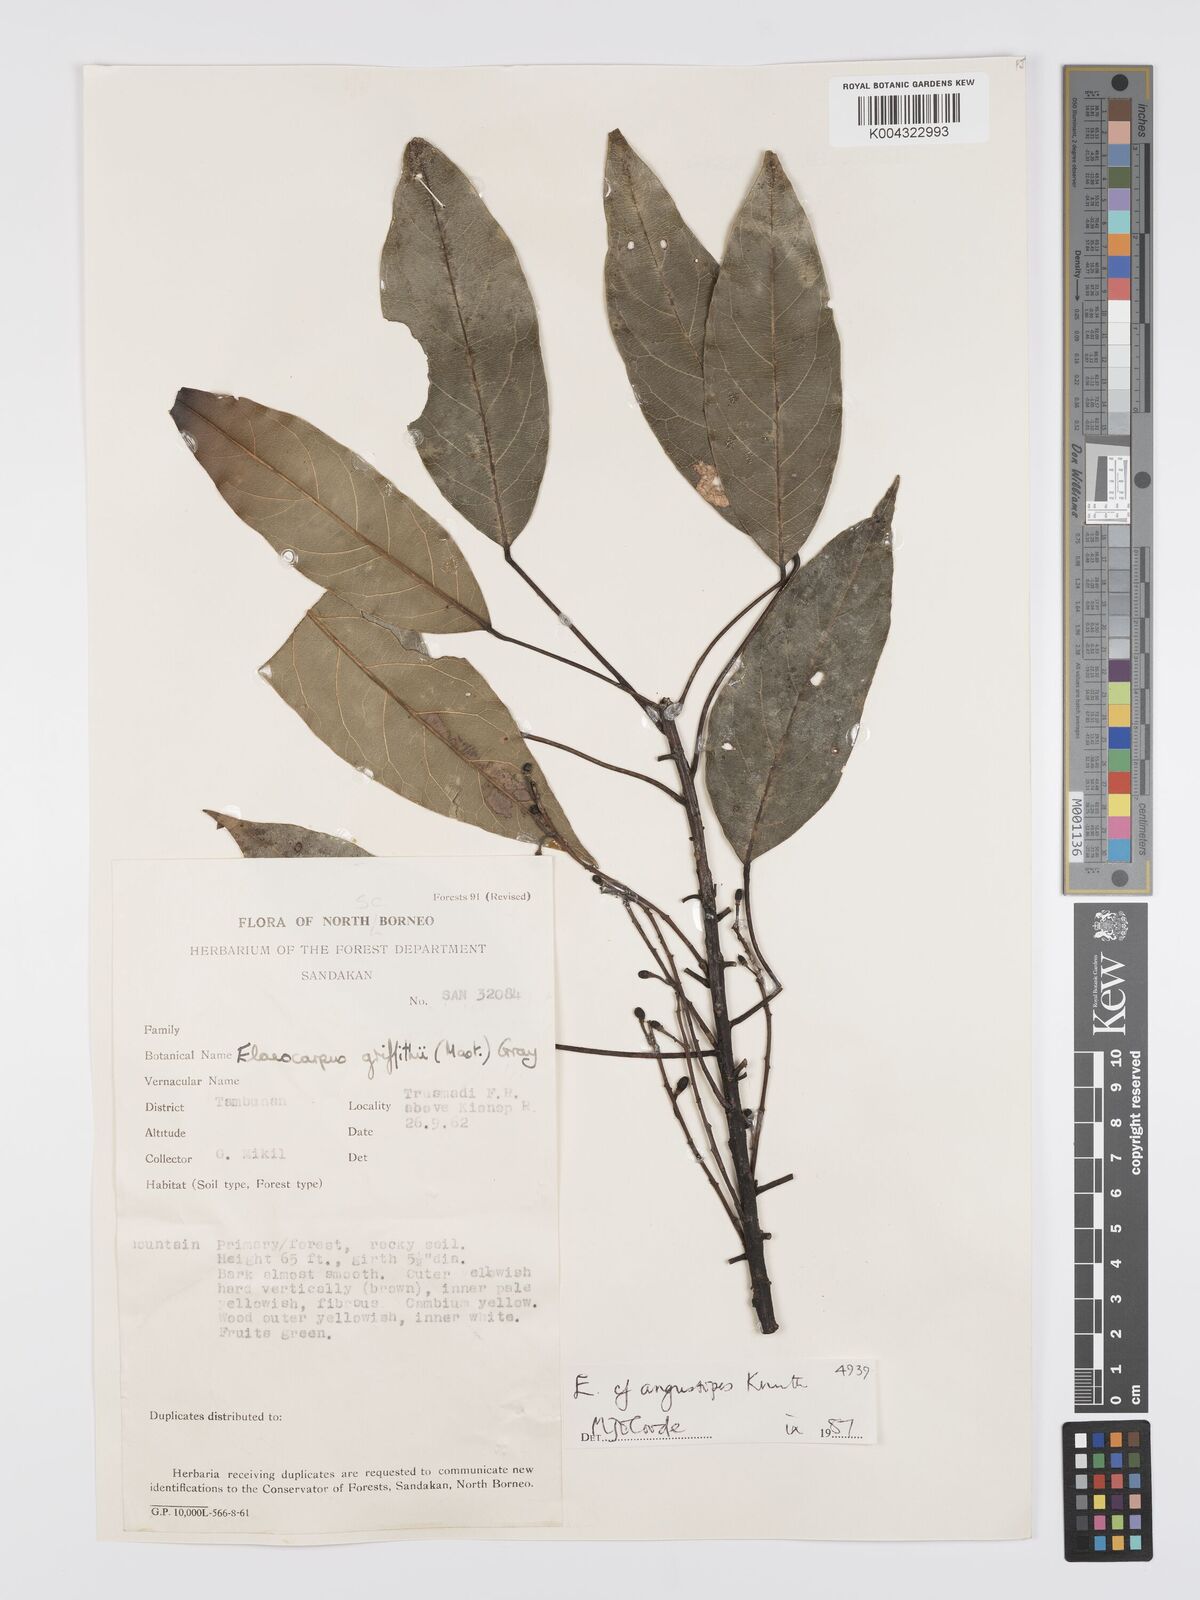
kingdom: Plantae
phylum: Tracheophyta
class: Magnoliopsida
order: Oxalidales
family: Elaeocarpaceae
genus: Elaeocarpus
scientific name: Elaeocarpus angustipes
